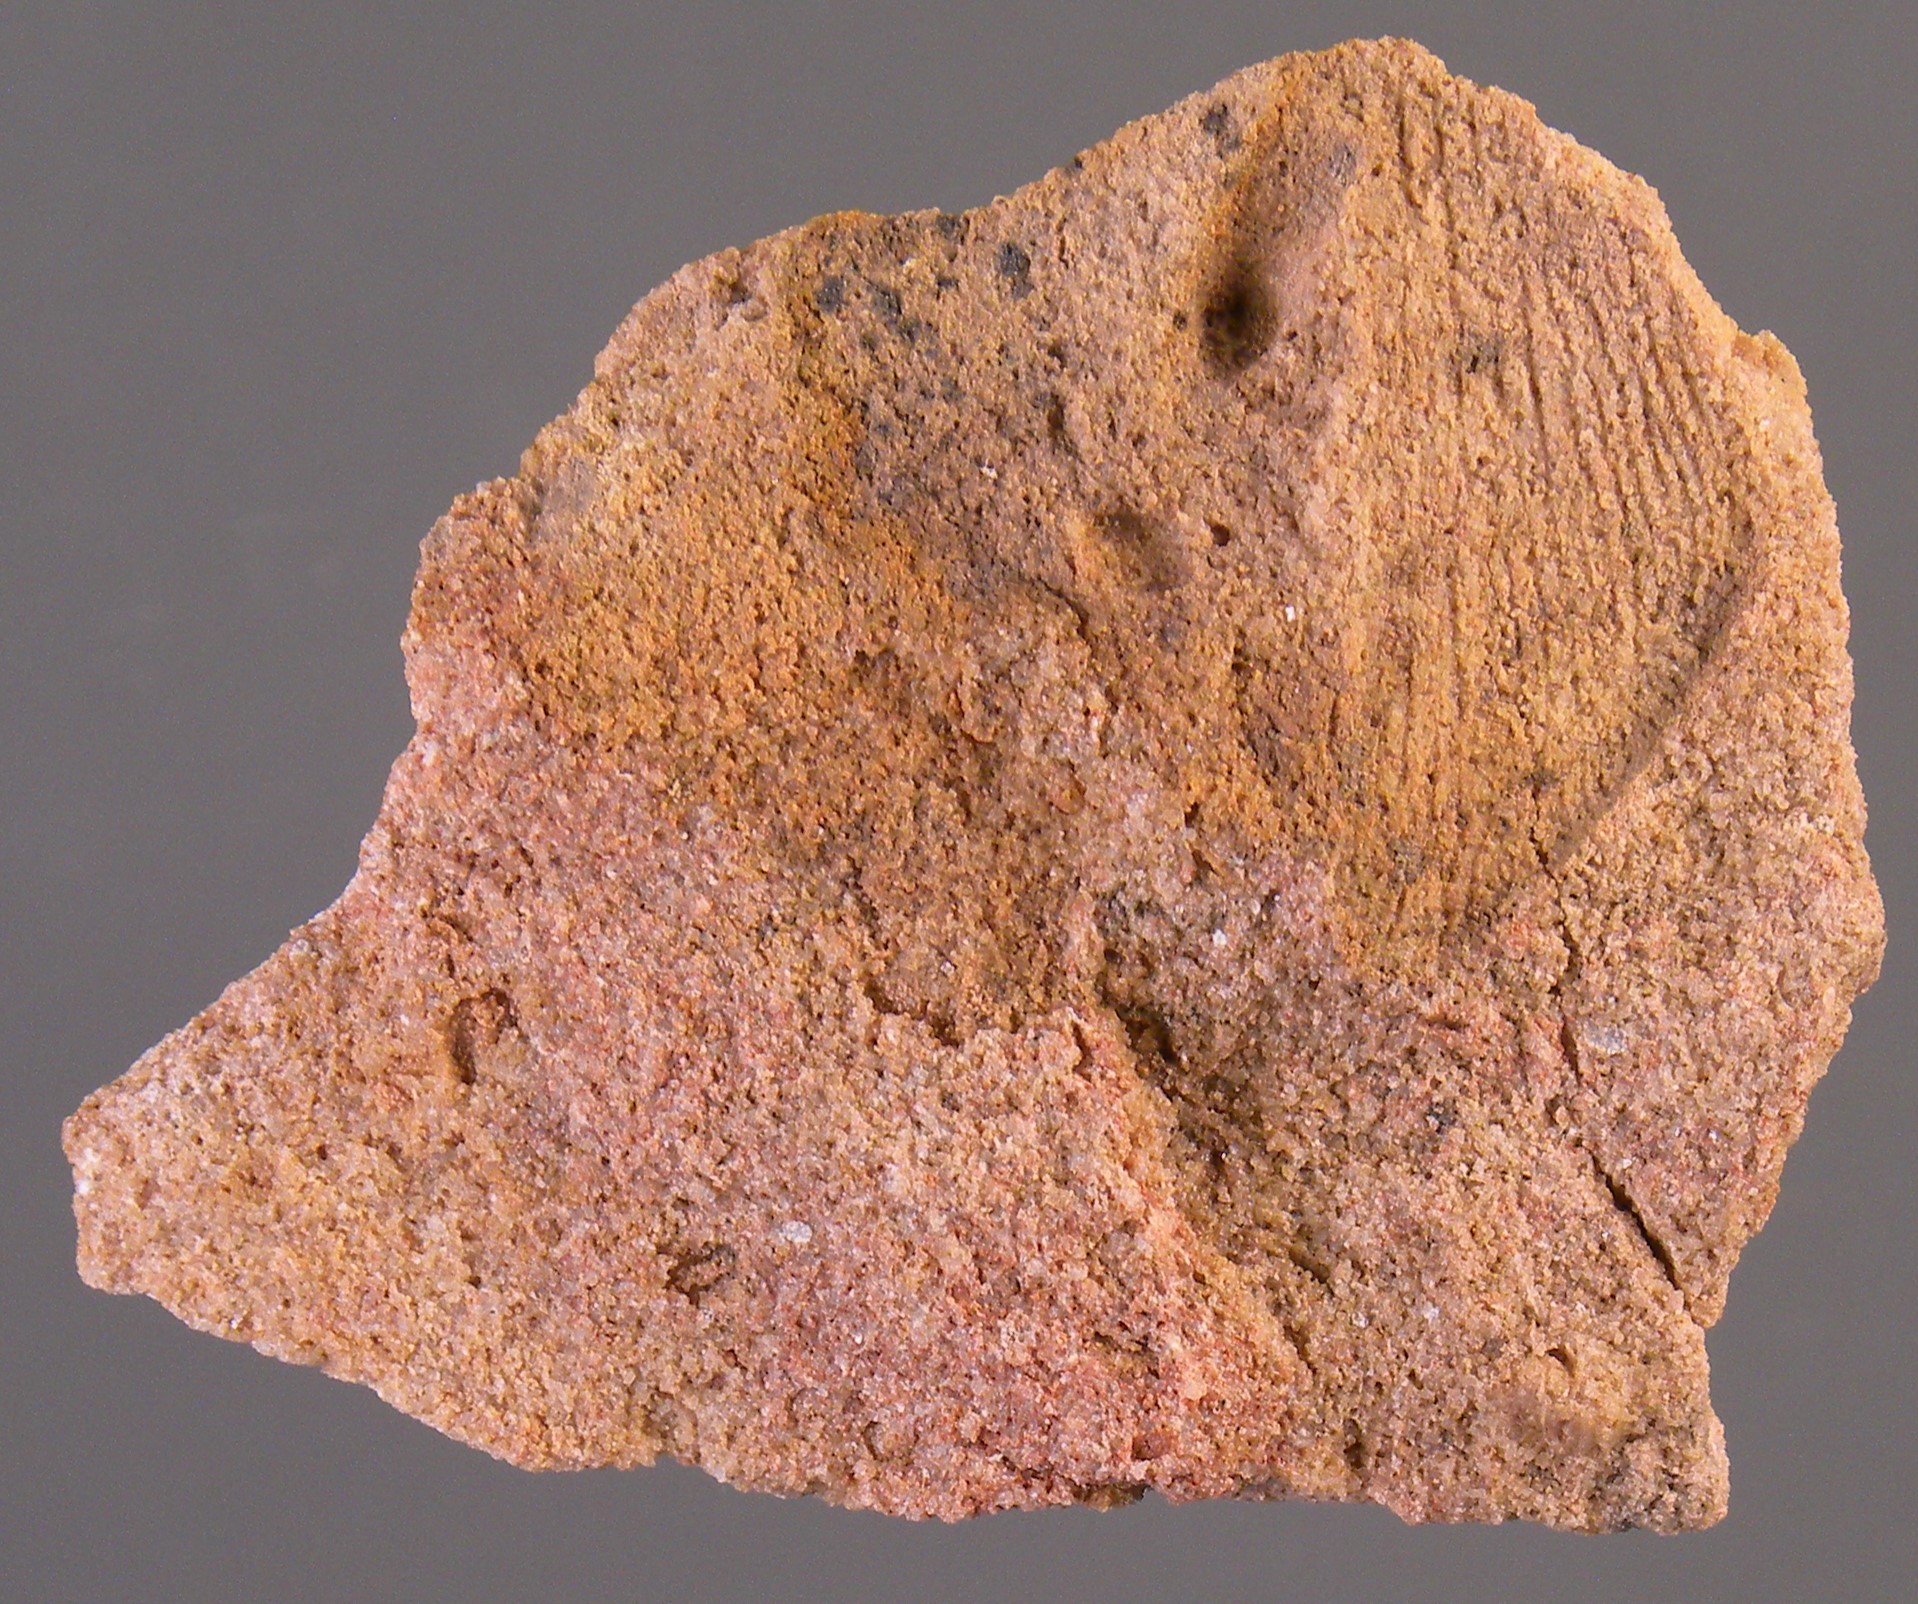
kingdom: Animalia
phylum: Mollusca
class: Bivalvia
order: Modiomorphida
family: Modiomorphidae
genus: Goniophora
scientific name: Goniophora
